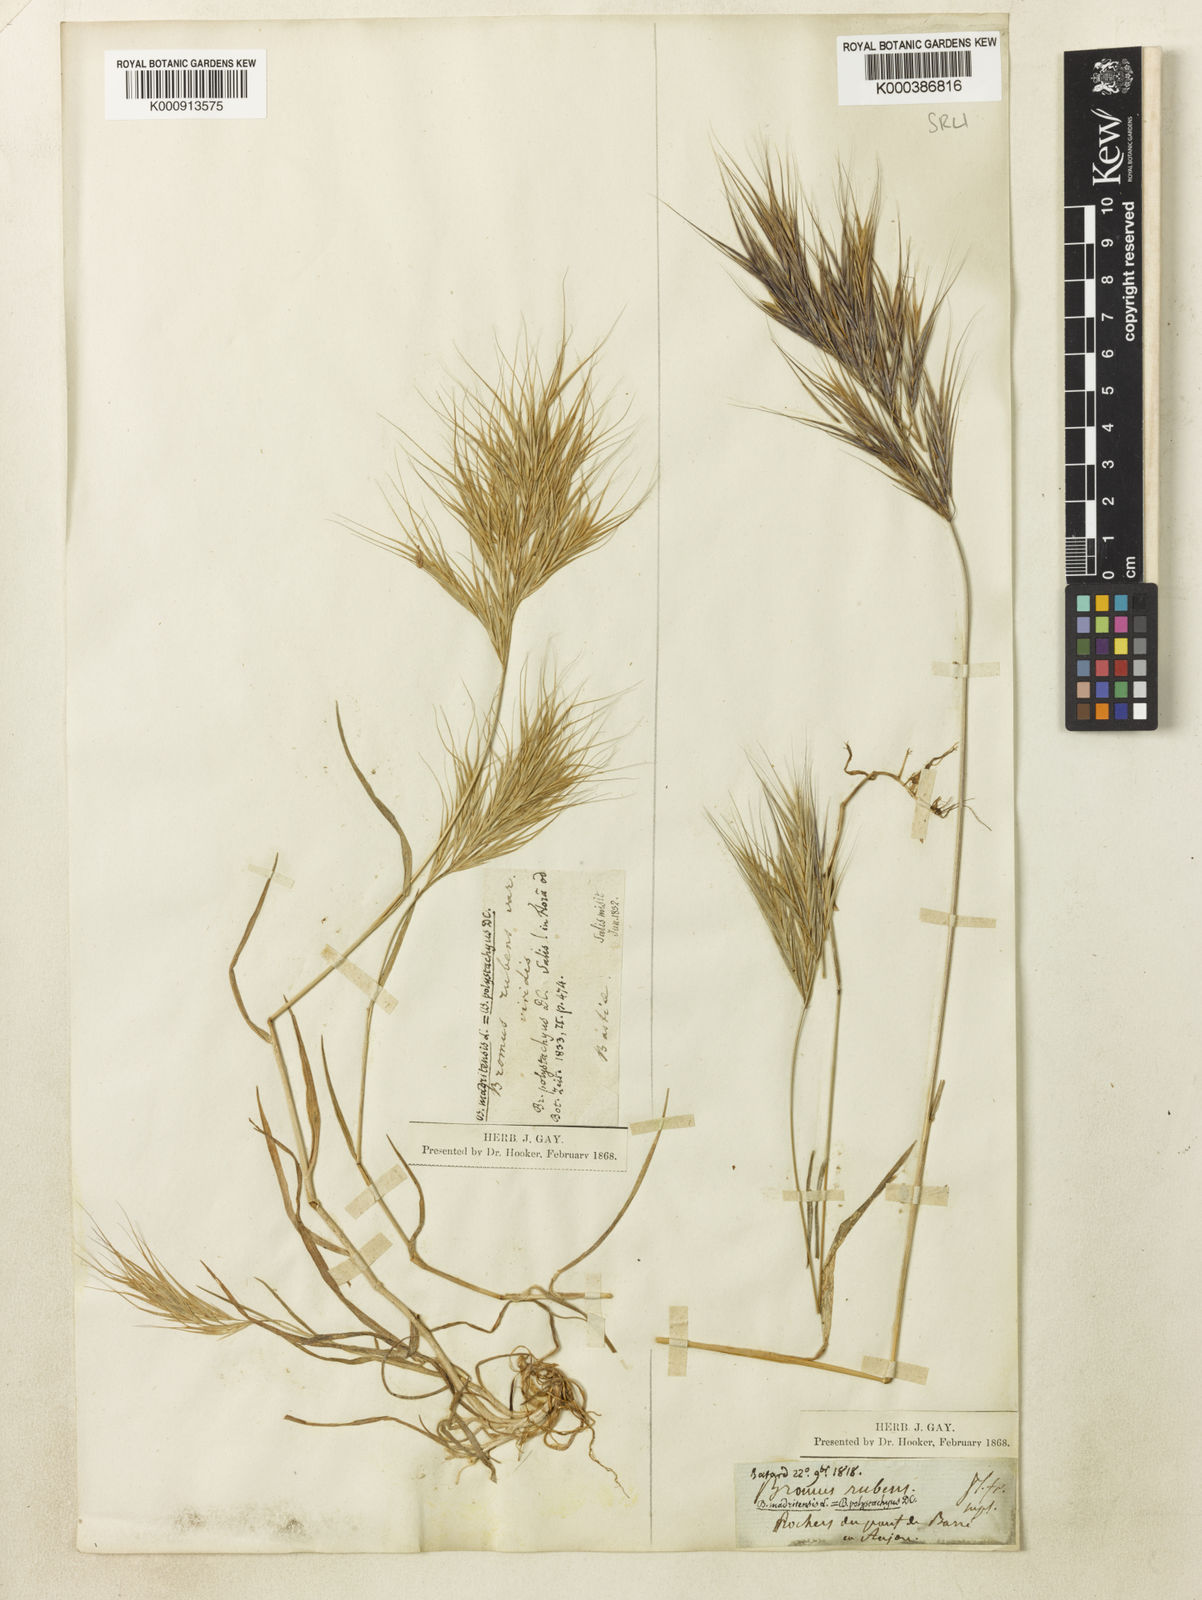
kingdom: Plantae
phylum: Tracheophyta
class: Liliopsida
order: Poales
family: Poaceae
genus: Bromus
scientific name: Bromus madritensis
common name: Compact brome
